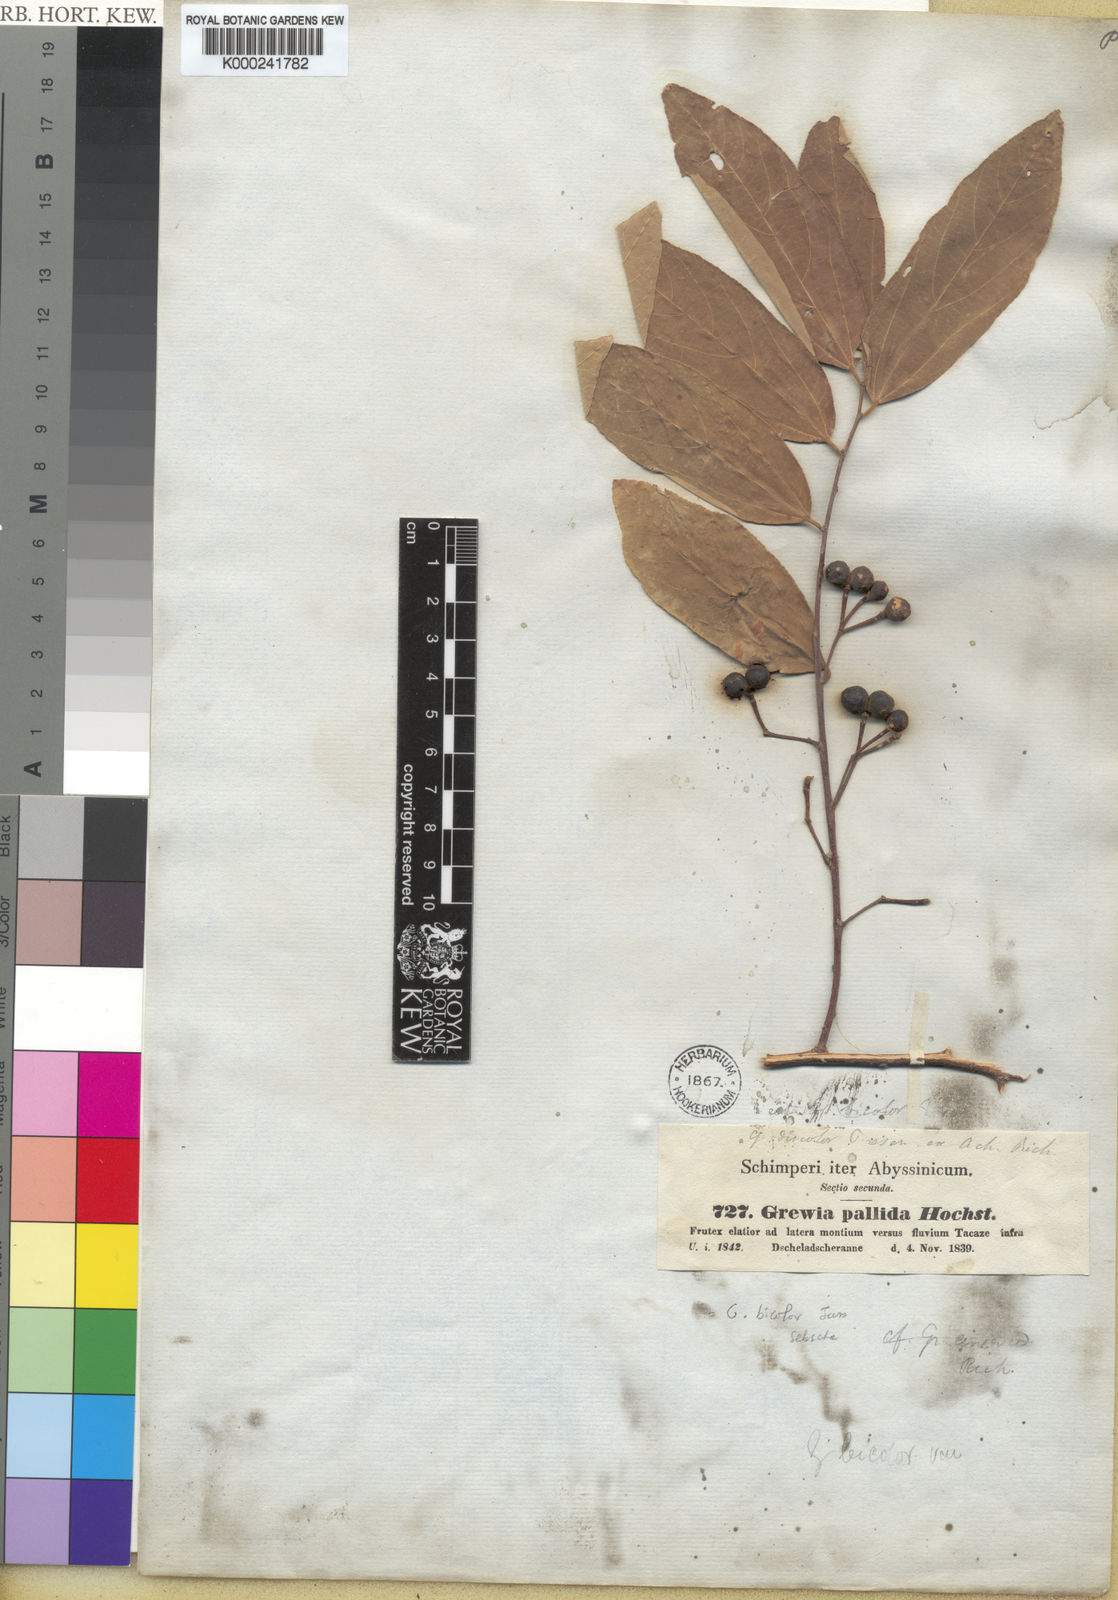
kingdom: Plantae
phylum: Tracheophyta
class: Magnoliopsida
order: Malvales
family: Malvaceae
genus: Grewia
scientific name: Grewia bicolor
